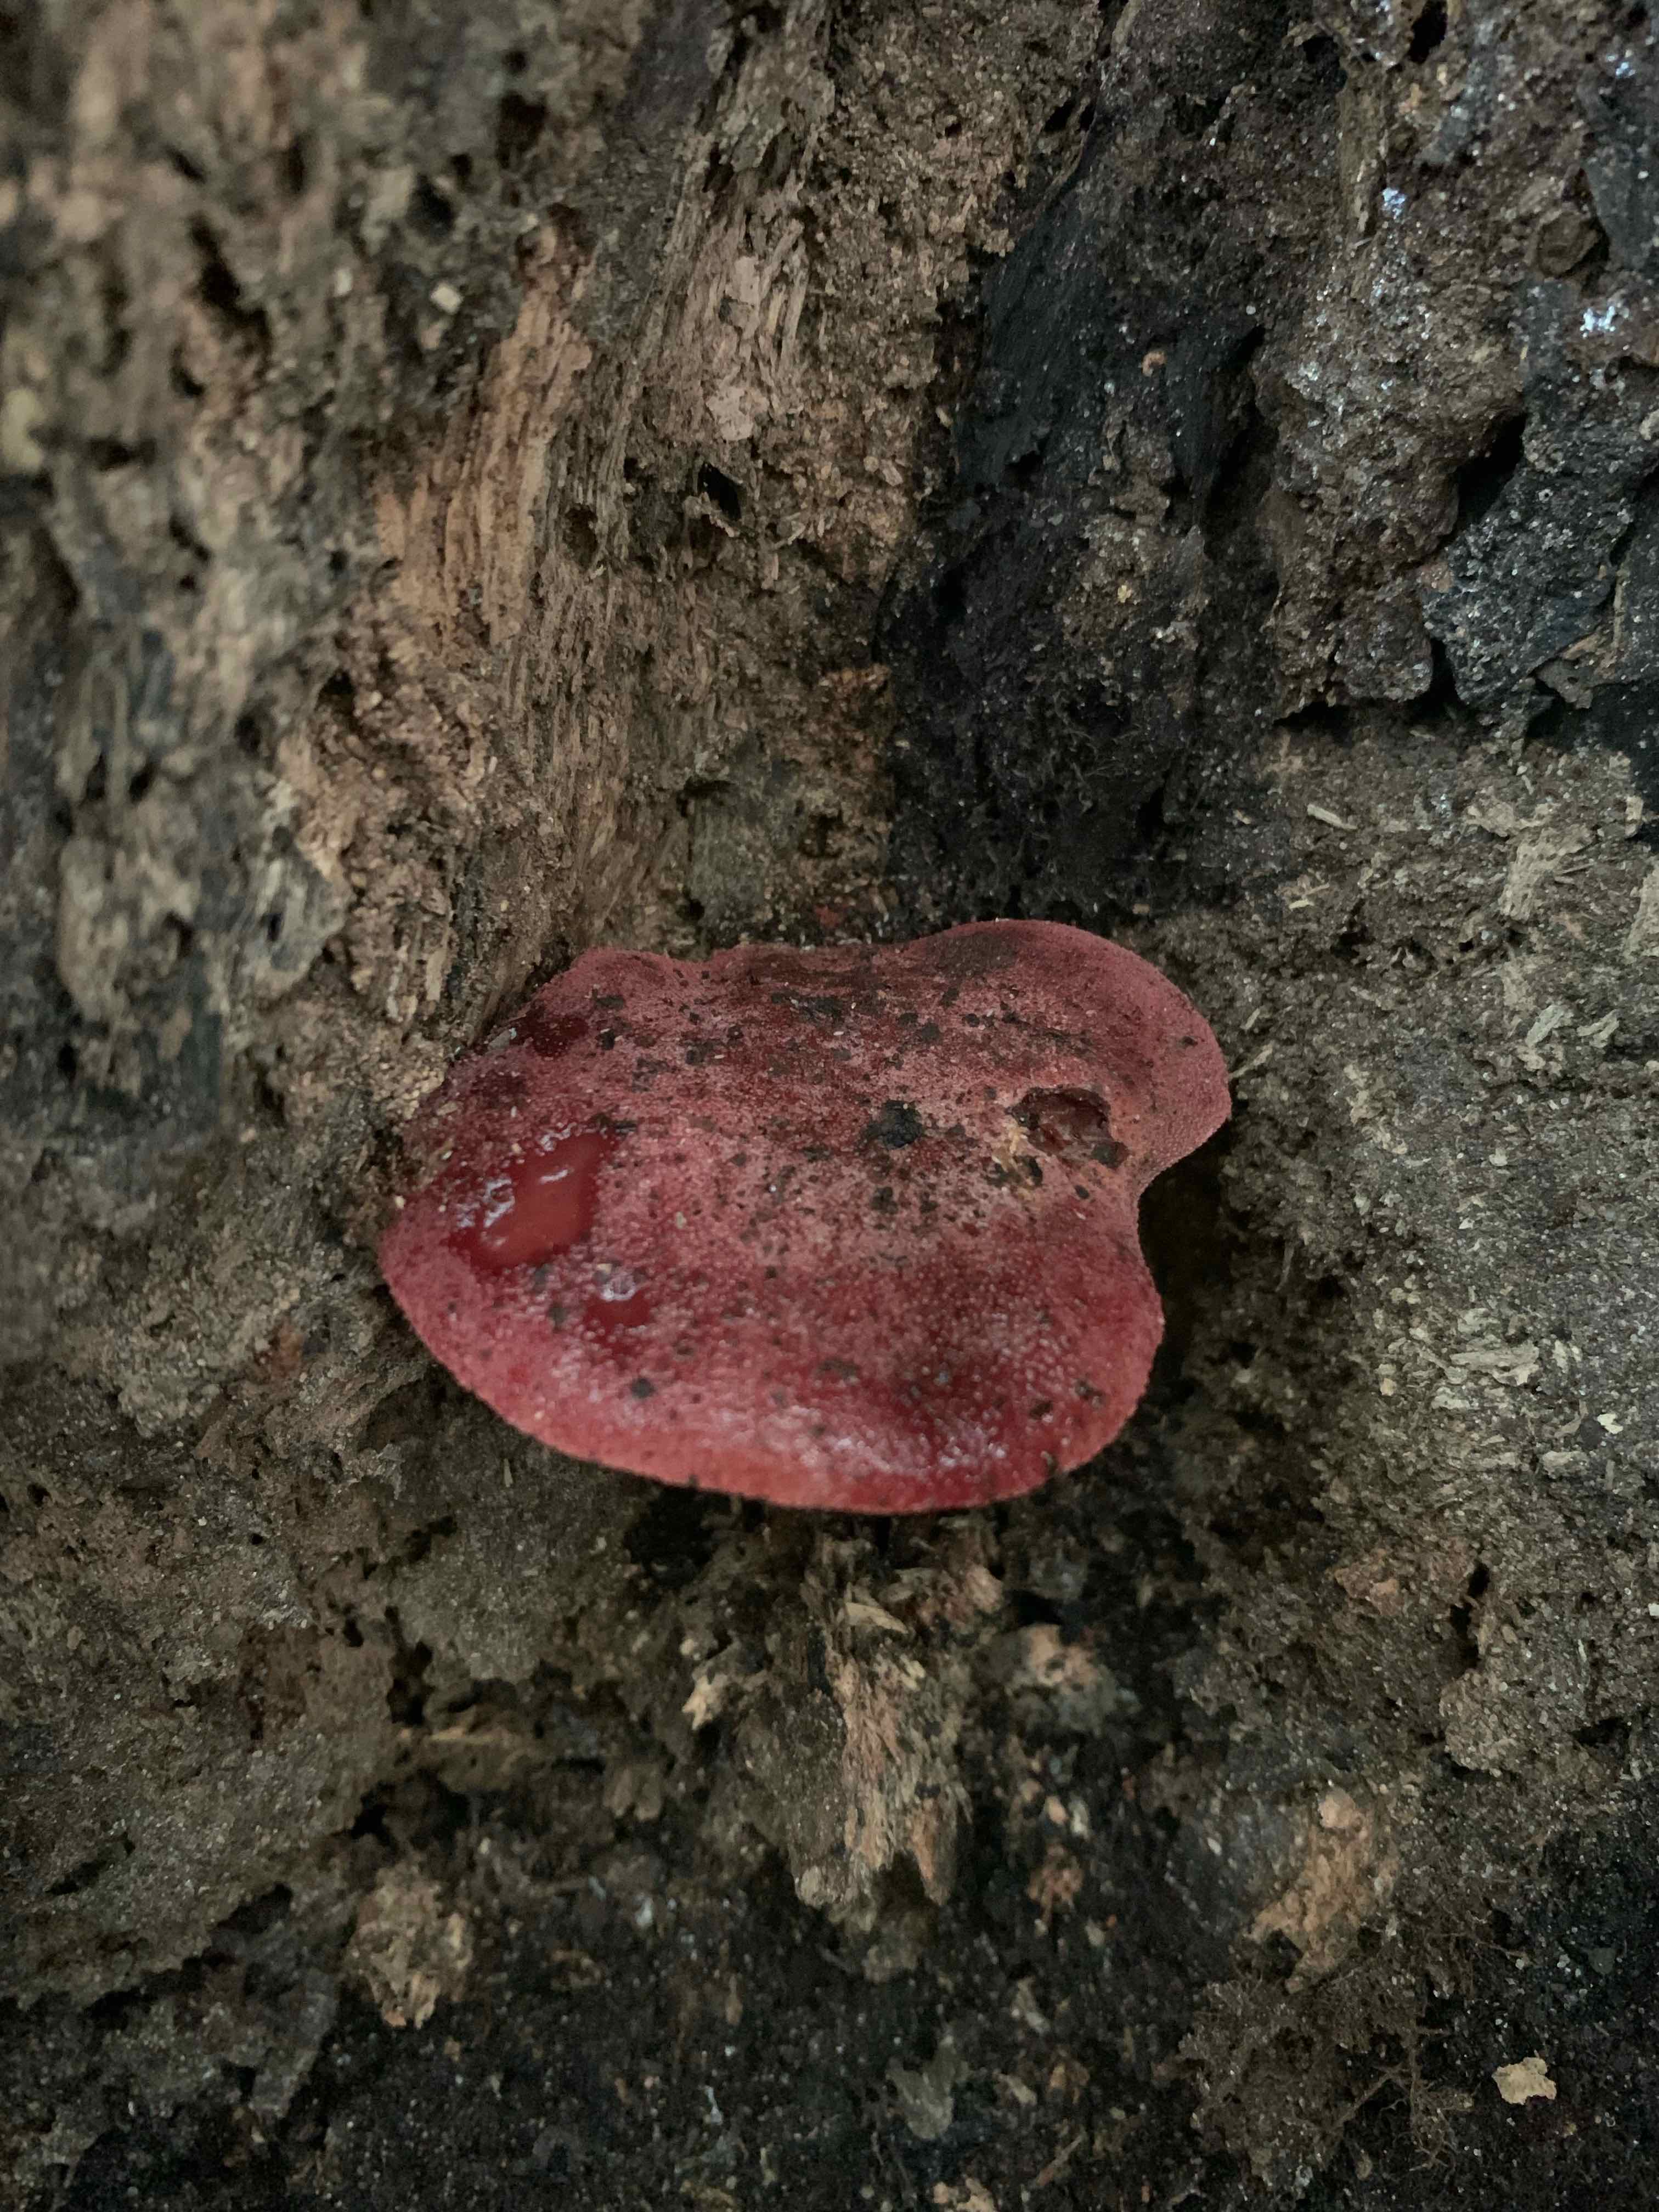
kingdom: Fungi
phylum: Basidiomycota
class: Agaricomycetes
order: Agaricales
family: Fistulinaceae
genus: Fistulina
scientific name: Fistulina hepatica
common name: oksetunge
